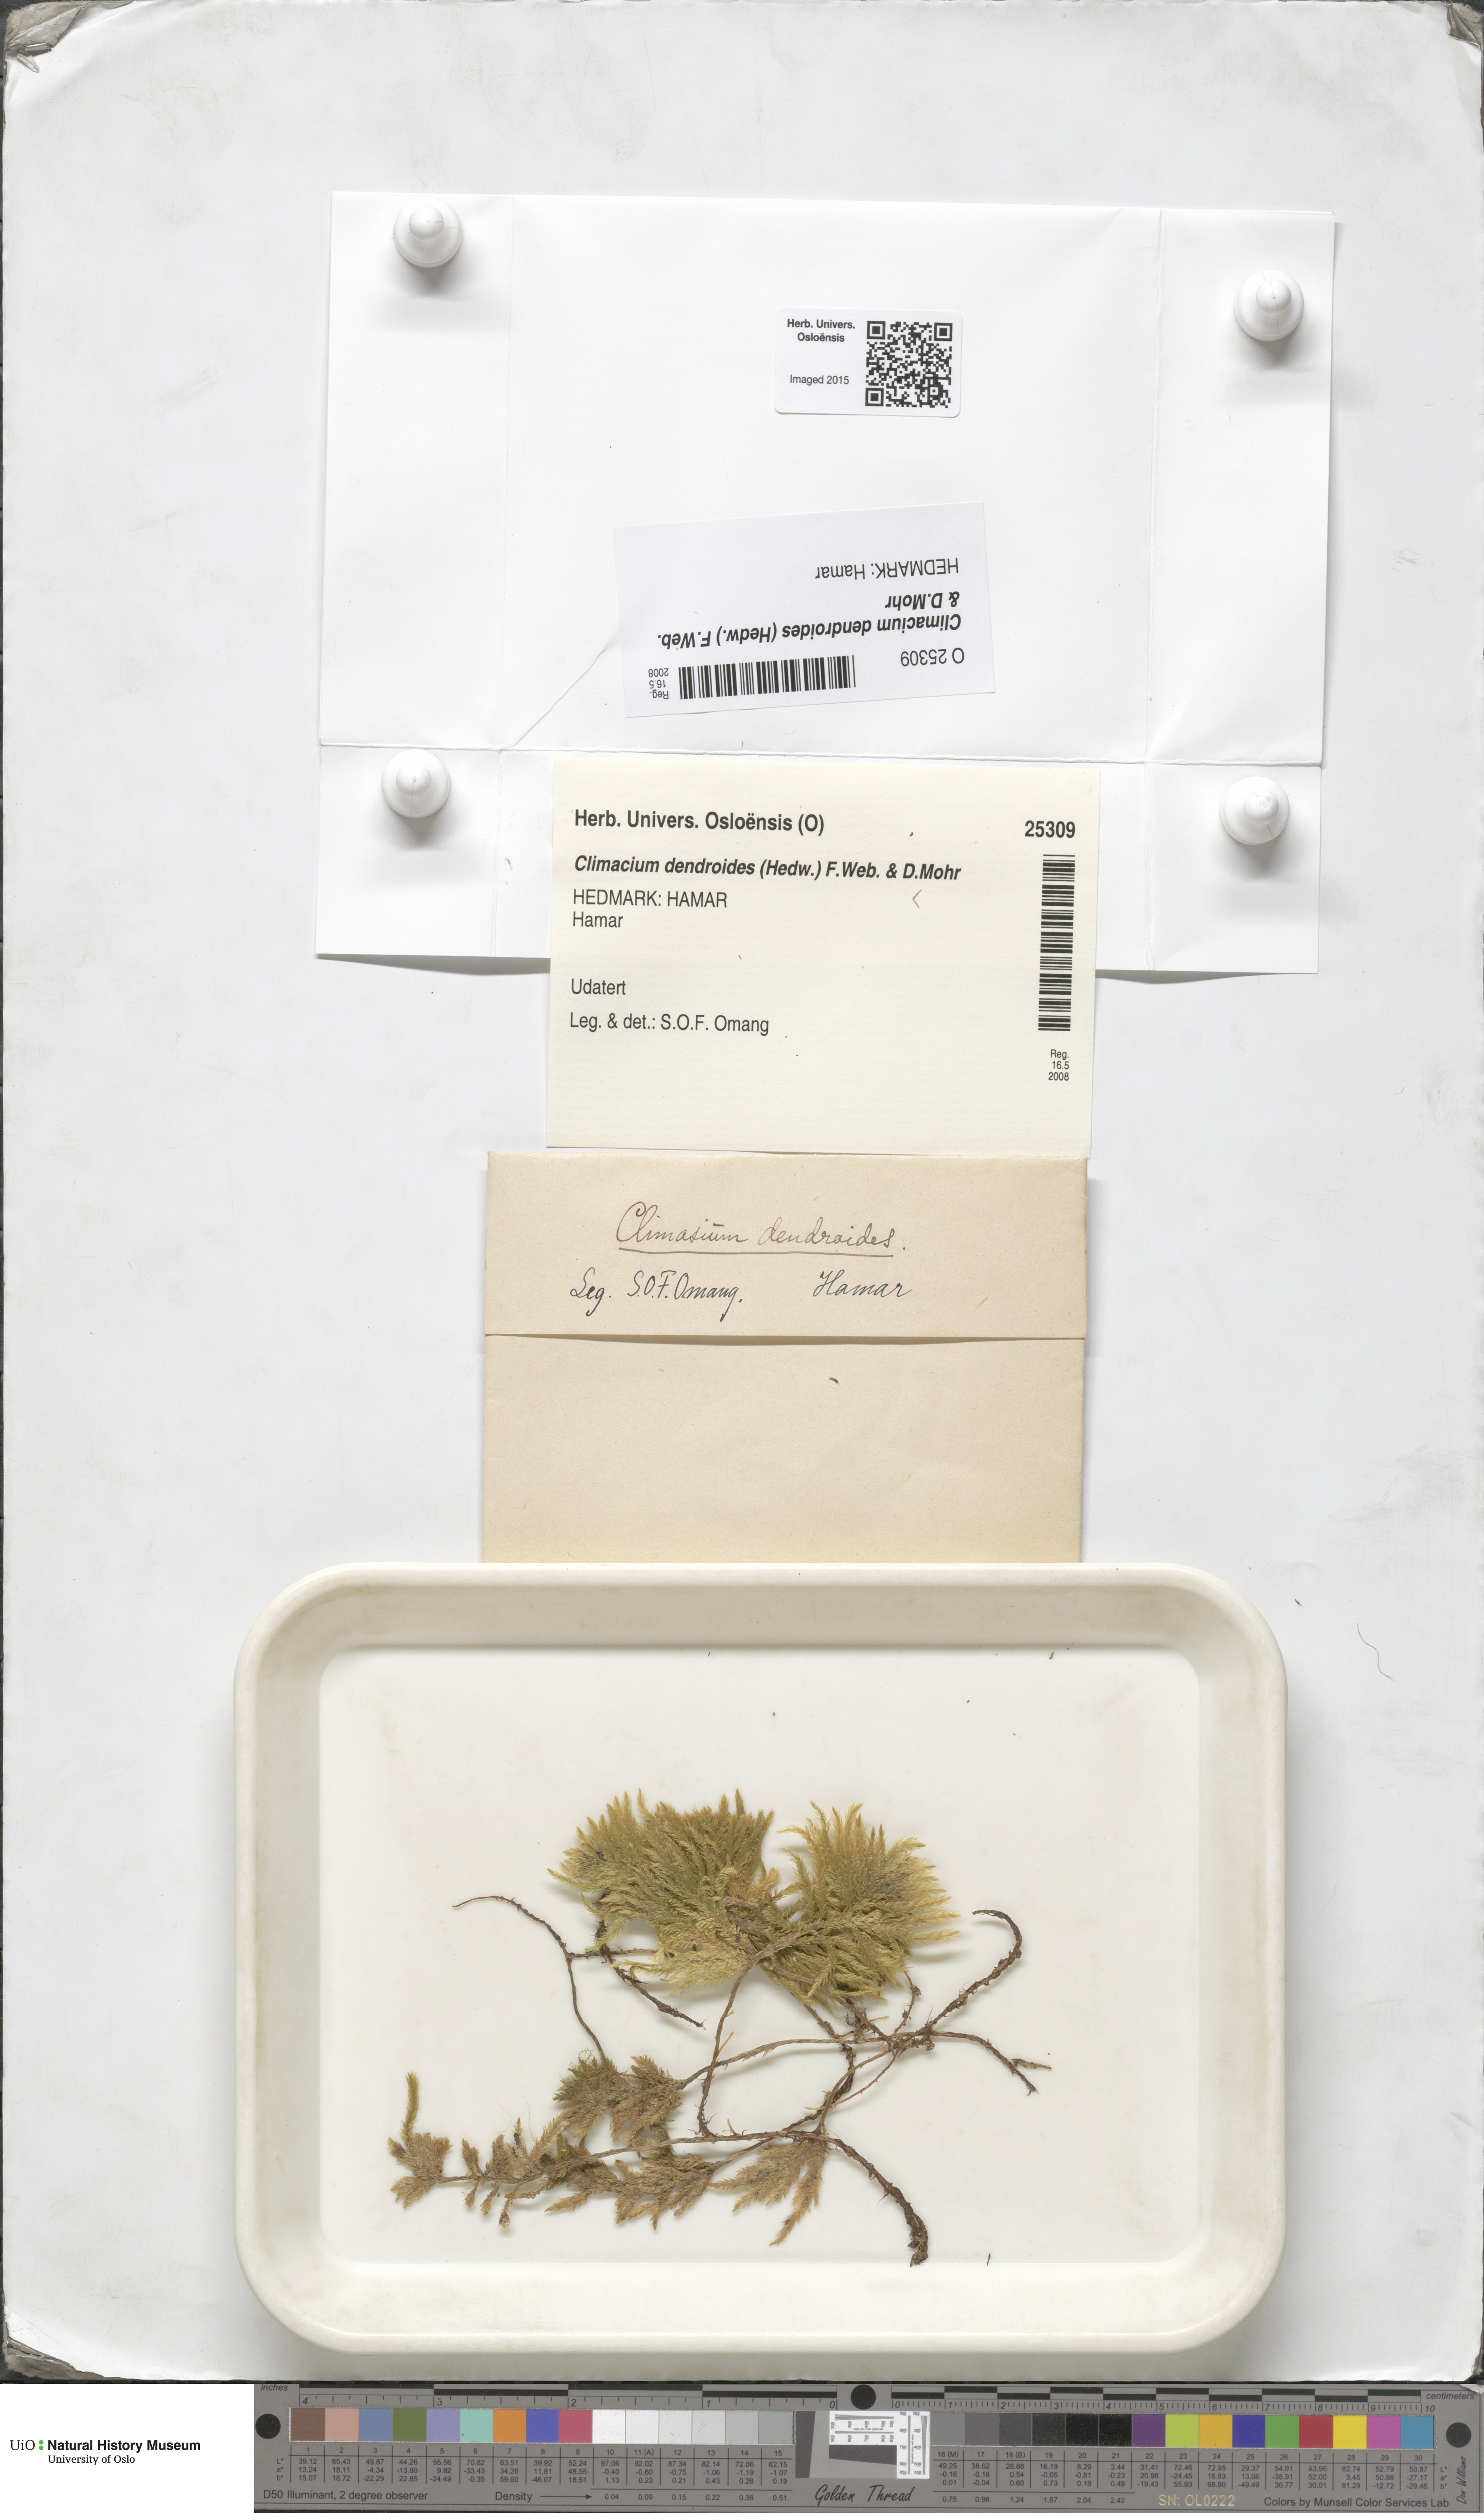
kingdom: Plantae
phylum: Bryophyta
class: Bryopsida
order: Hypnales
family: Climaciaceae
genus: Climacium
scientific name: Climacium dendroides
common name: Northern tree moss
